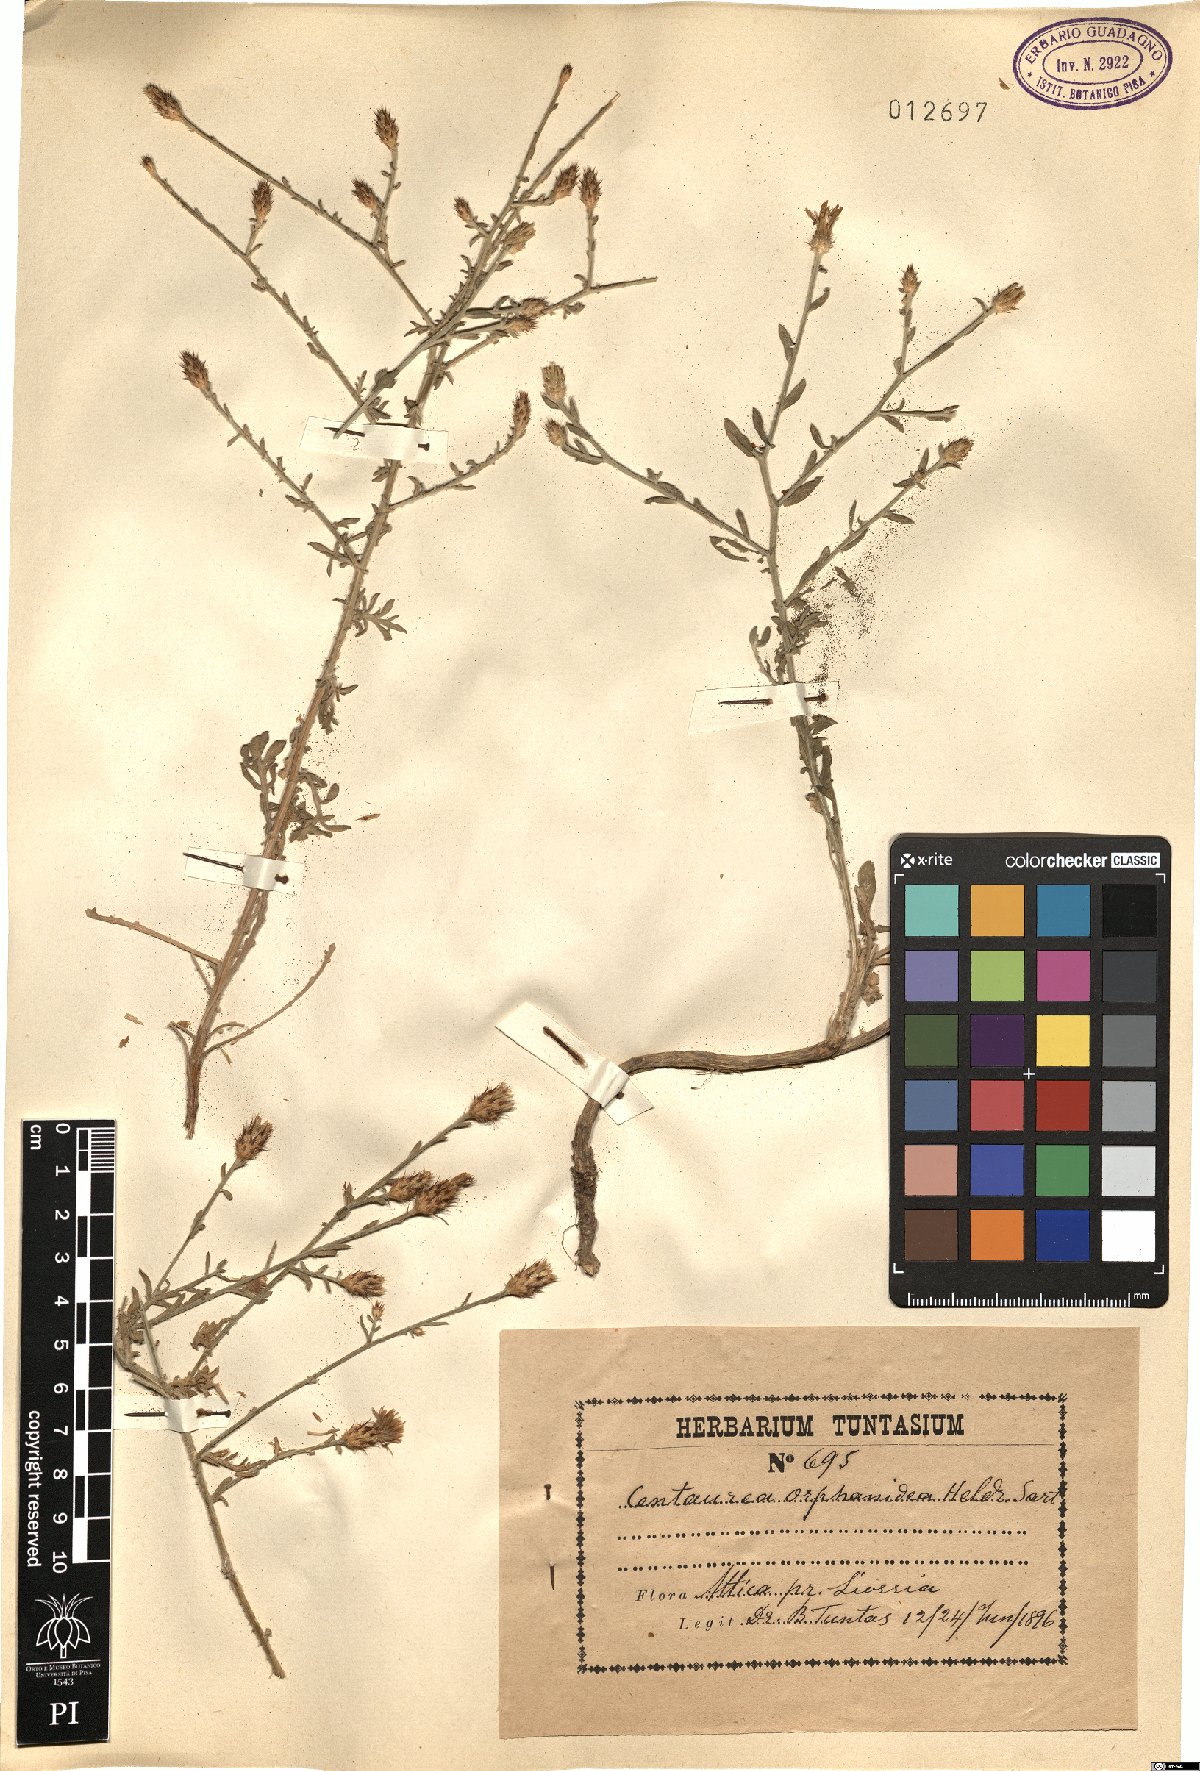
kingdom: Plantae
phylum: Tracheophyta
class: Magnoliopsida
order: Asterales
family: Asteraceae
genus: Centaurea
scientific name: Centaurea orphanidea
